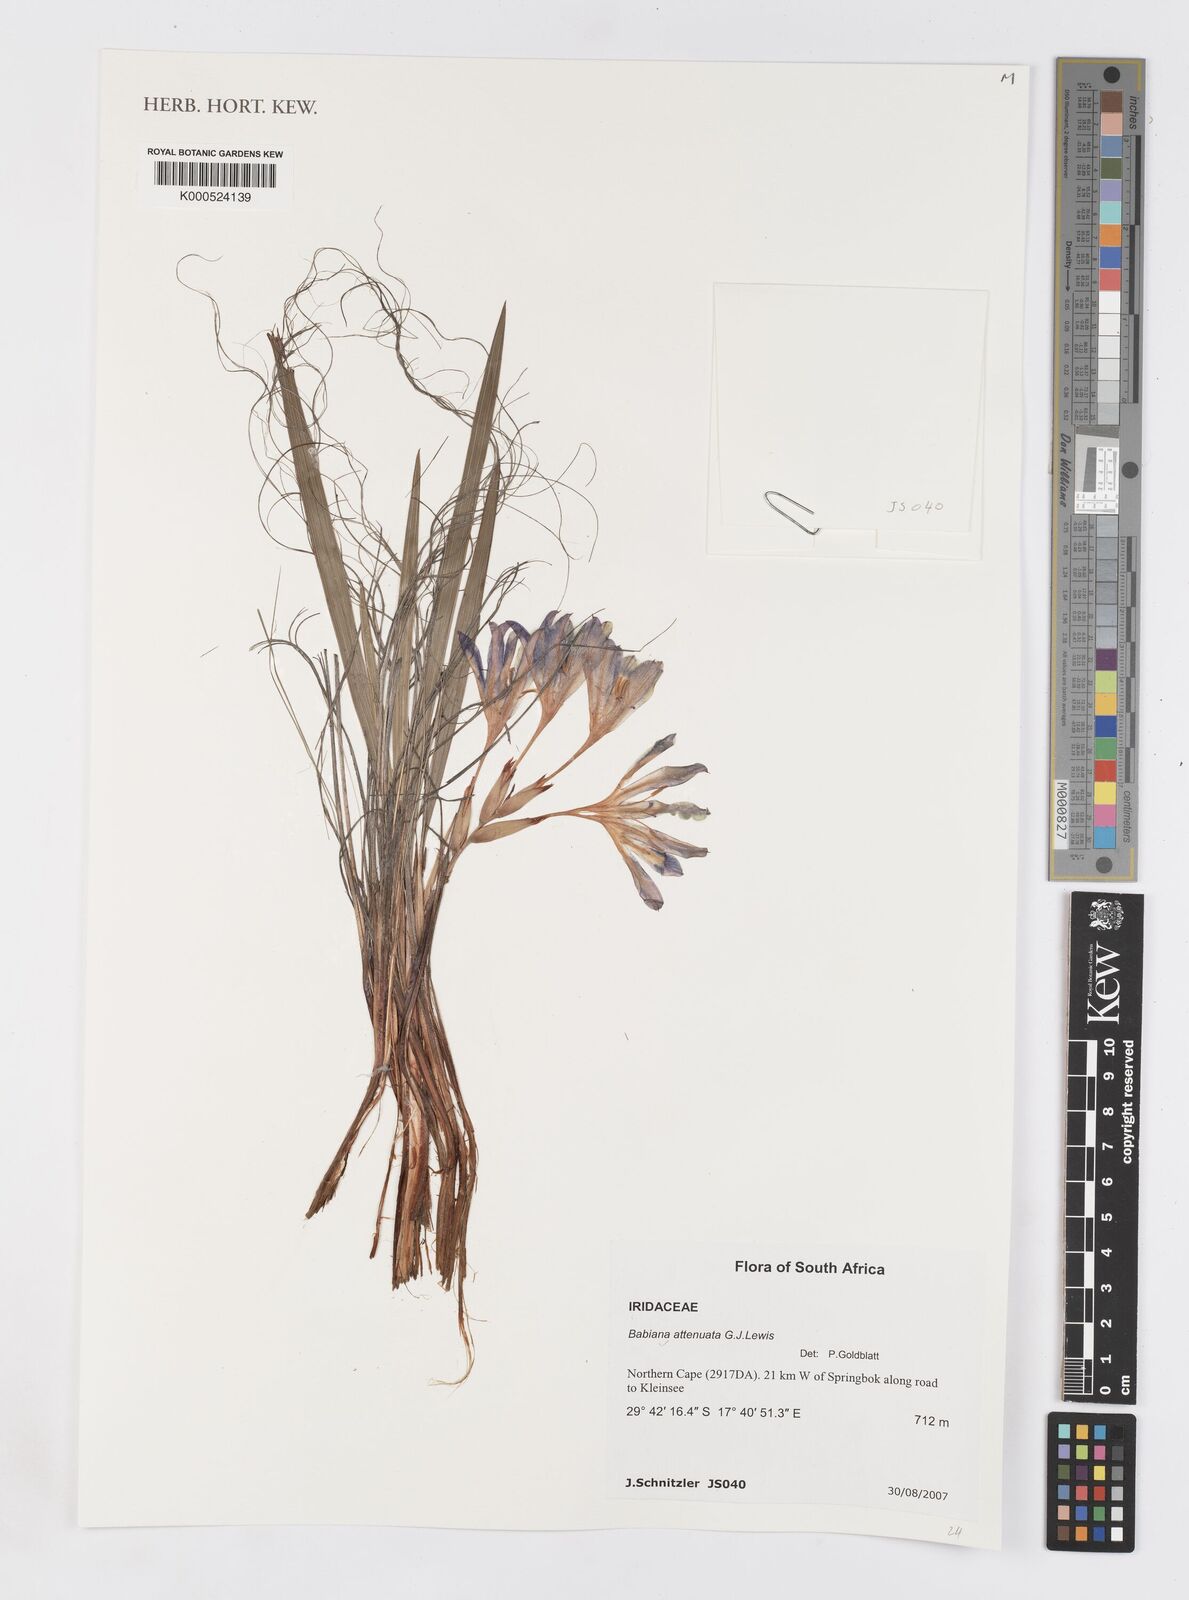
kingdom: Plantae
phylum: Tracheophyta
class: Liliopsida
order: Asparagales
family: Iridaceae
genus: Babiana
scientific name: Babiana attenuata
